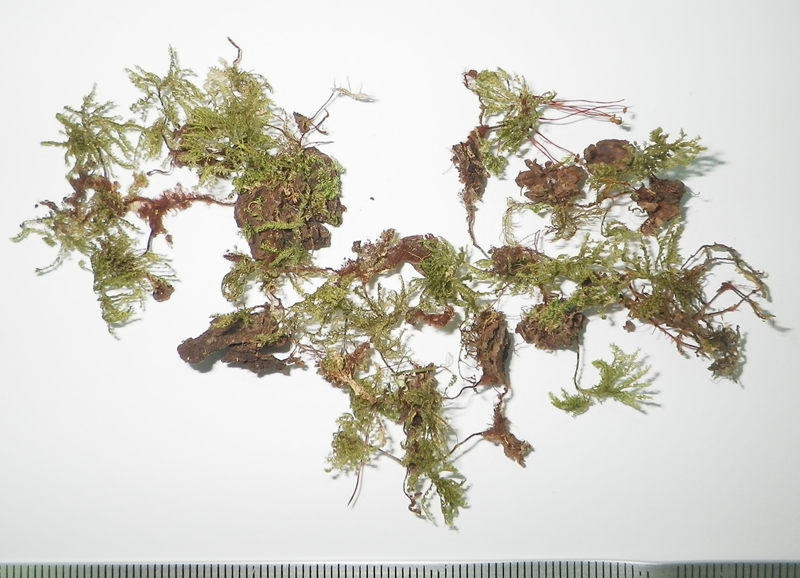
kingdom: Plantae
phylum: Bryophyta
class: Bryopsida
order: Hypopterygiales
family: Hypopterygiaceae
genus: Hypopterygium
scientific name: Hypopterygium tamarisci
